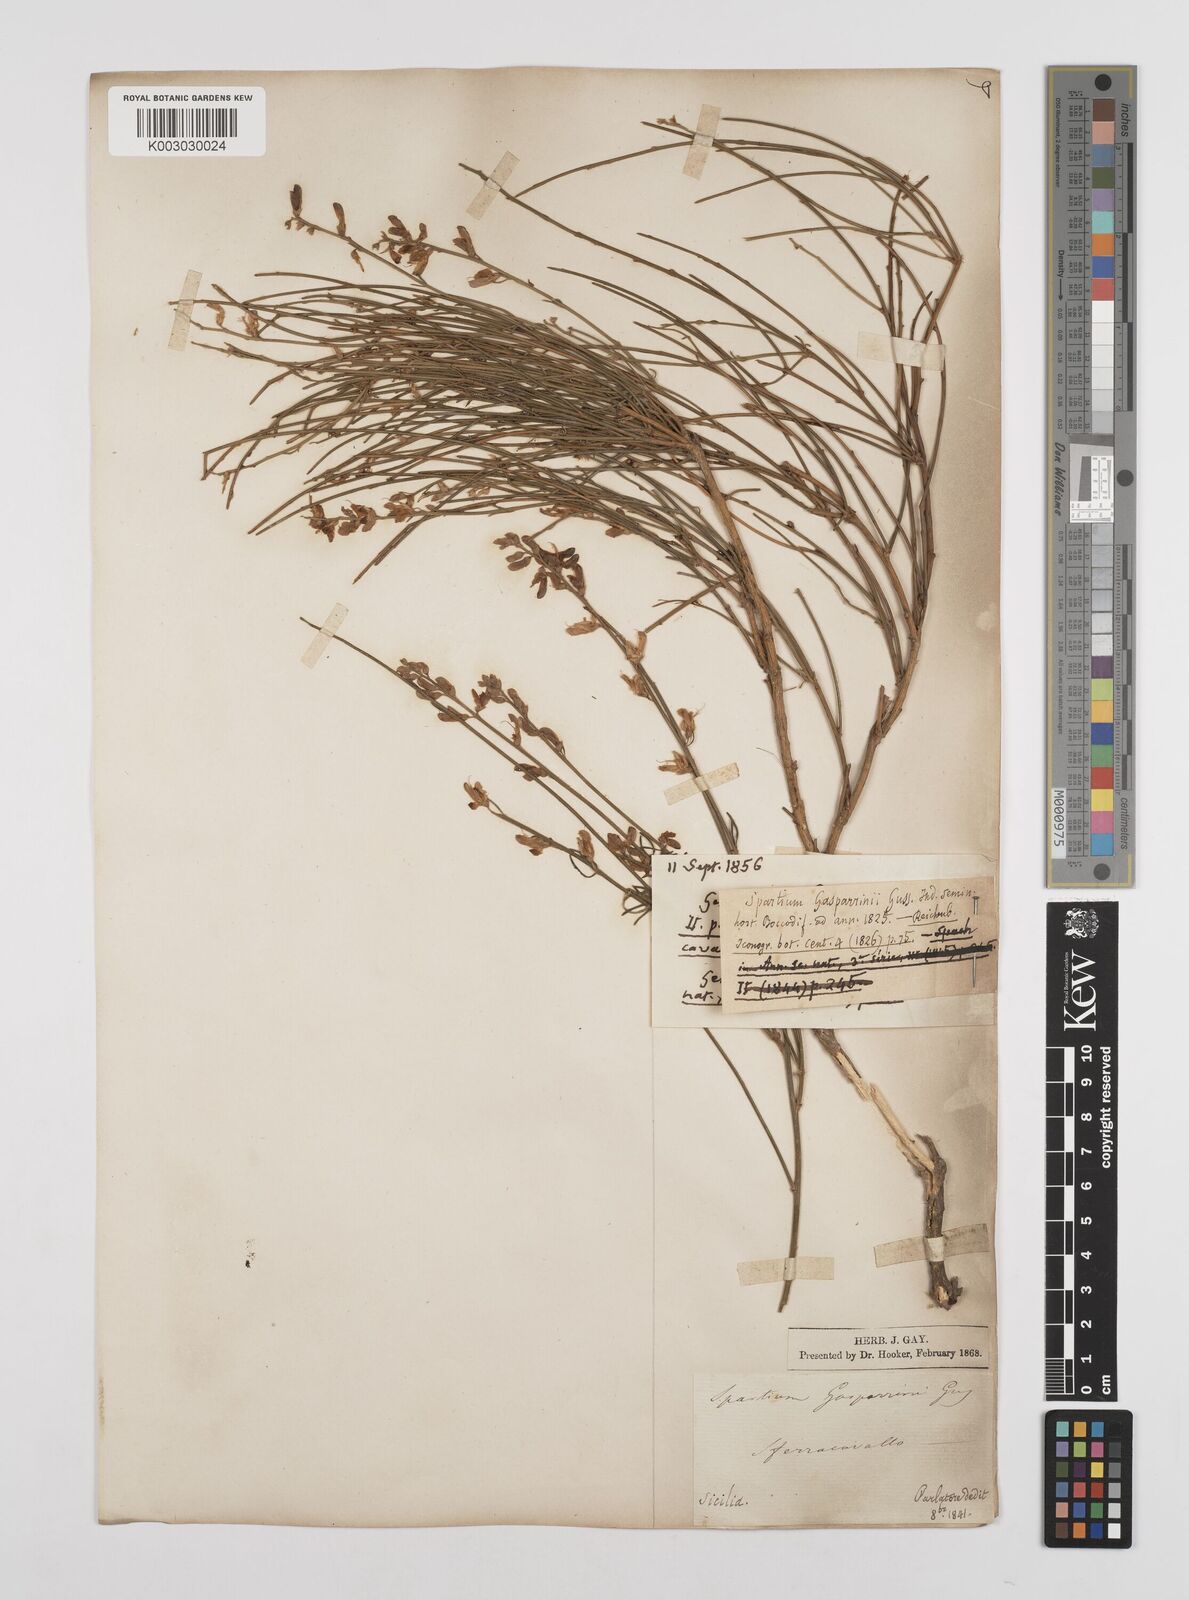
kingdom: Plantae
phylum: Tracheophyta
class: Magnoliopsida
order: Fabales
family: Fabaceae
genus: Genista
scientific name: Genista ephedroides
